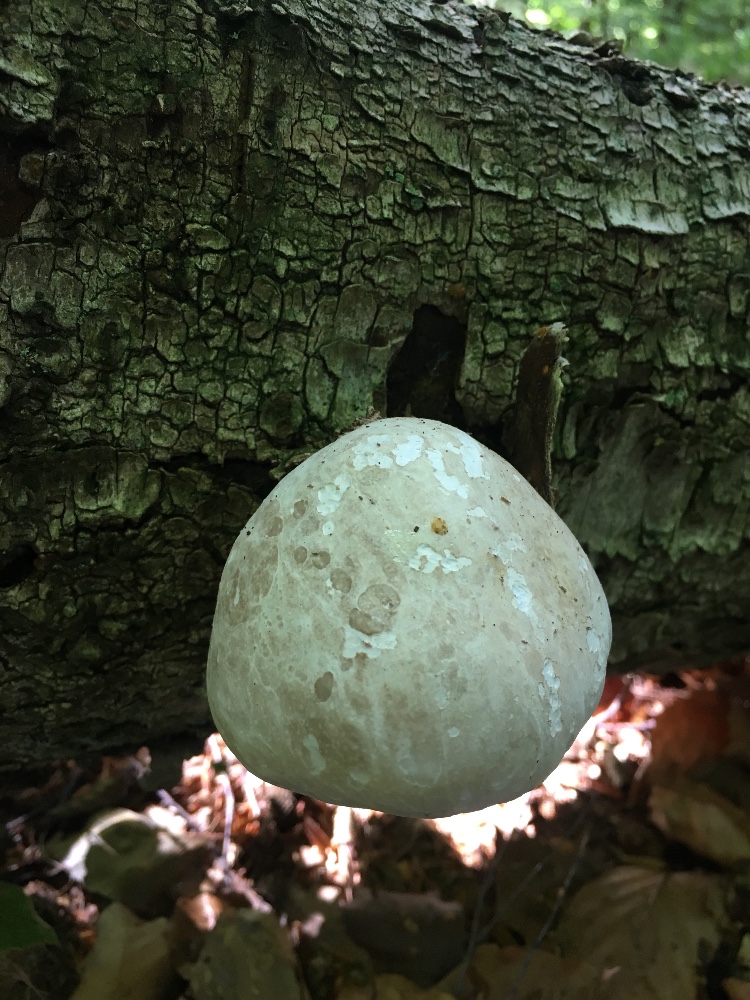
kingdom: Fungi
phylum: Basidiomycota
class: Agaricomycetes
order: Polyporales
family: Fomitopsidaceae
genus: Fomitopsis
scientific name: Fomitopsis betulina
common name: birkeporesvamp
